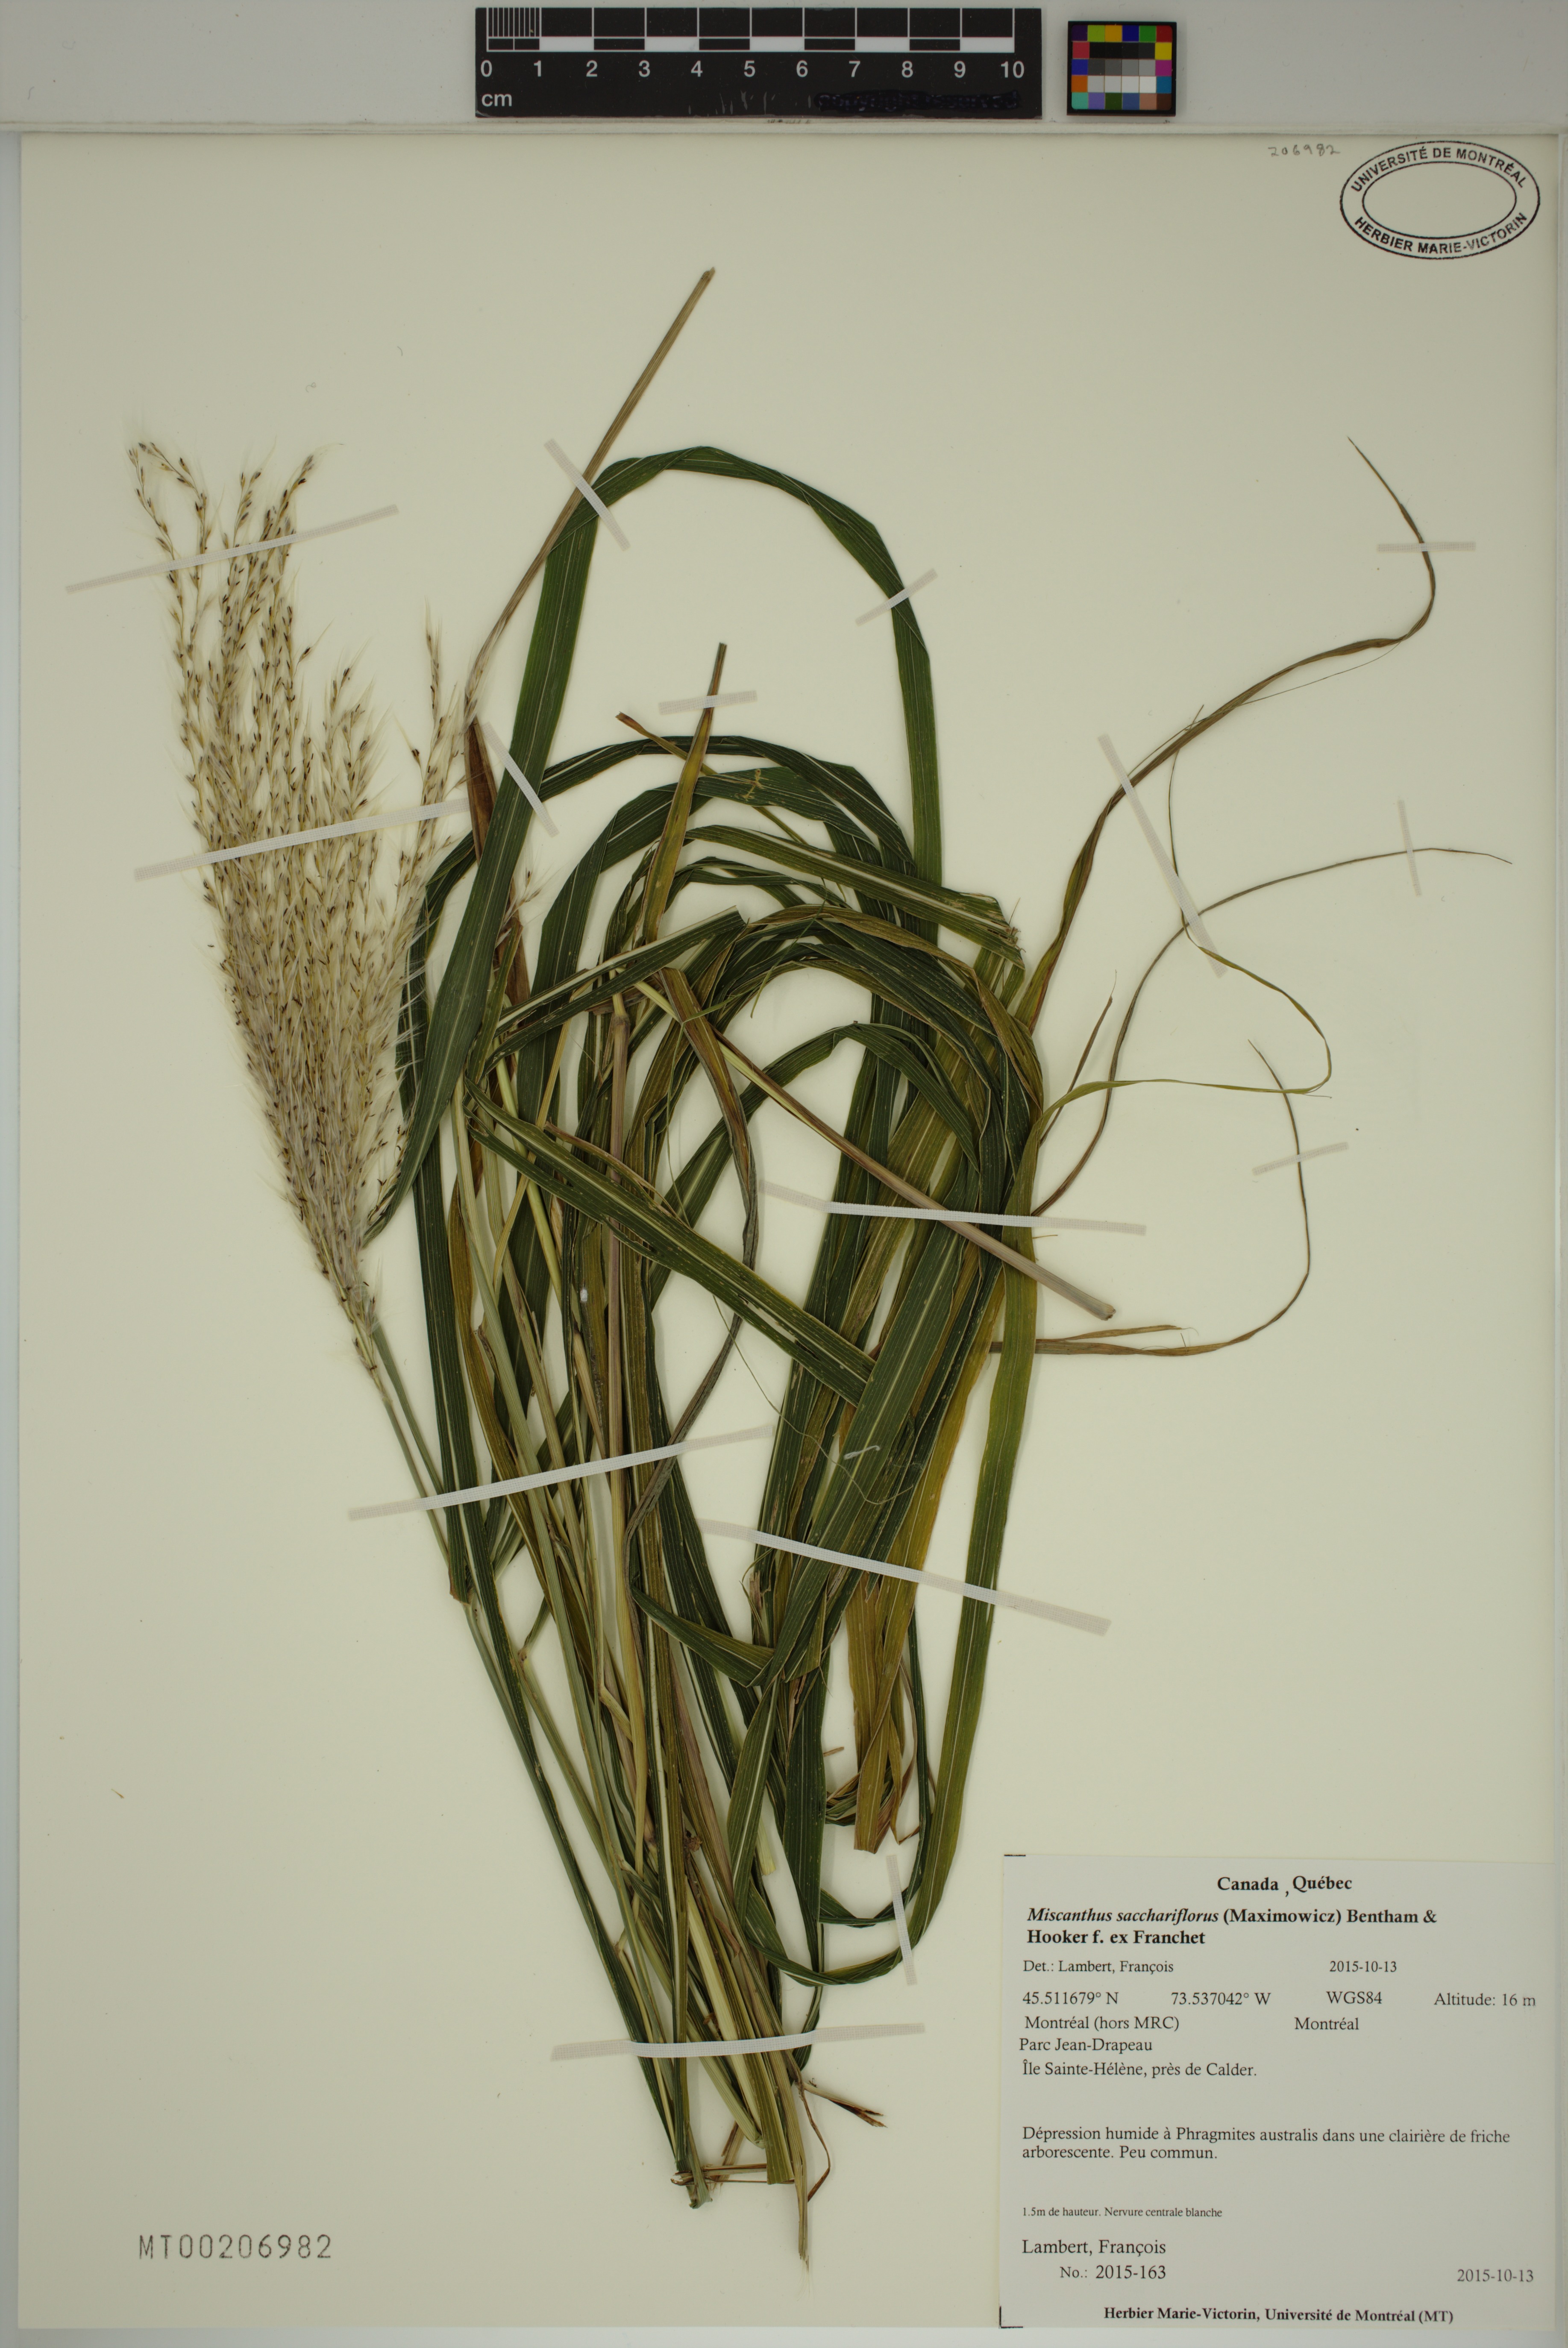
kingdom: Plantae
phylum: Tracheophyta
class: Liliopsida
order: Poales
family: Poaceae
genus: Miscanthus
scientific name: Miscanthus sacchariflorus
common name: Amur silver grass
